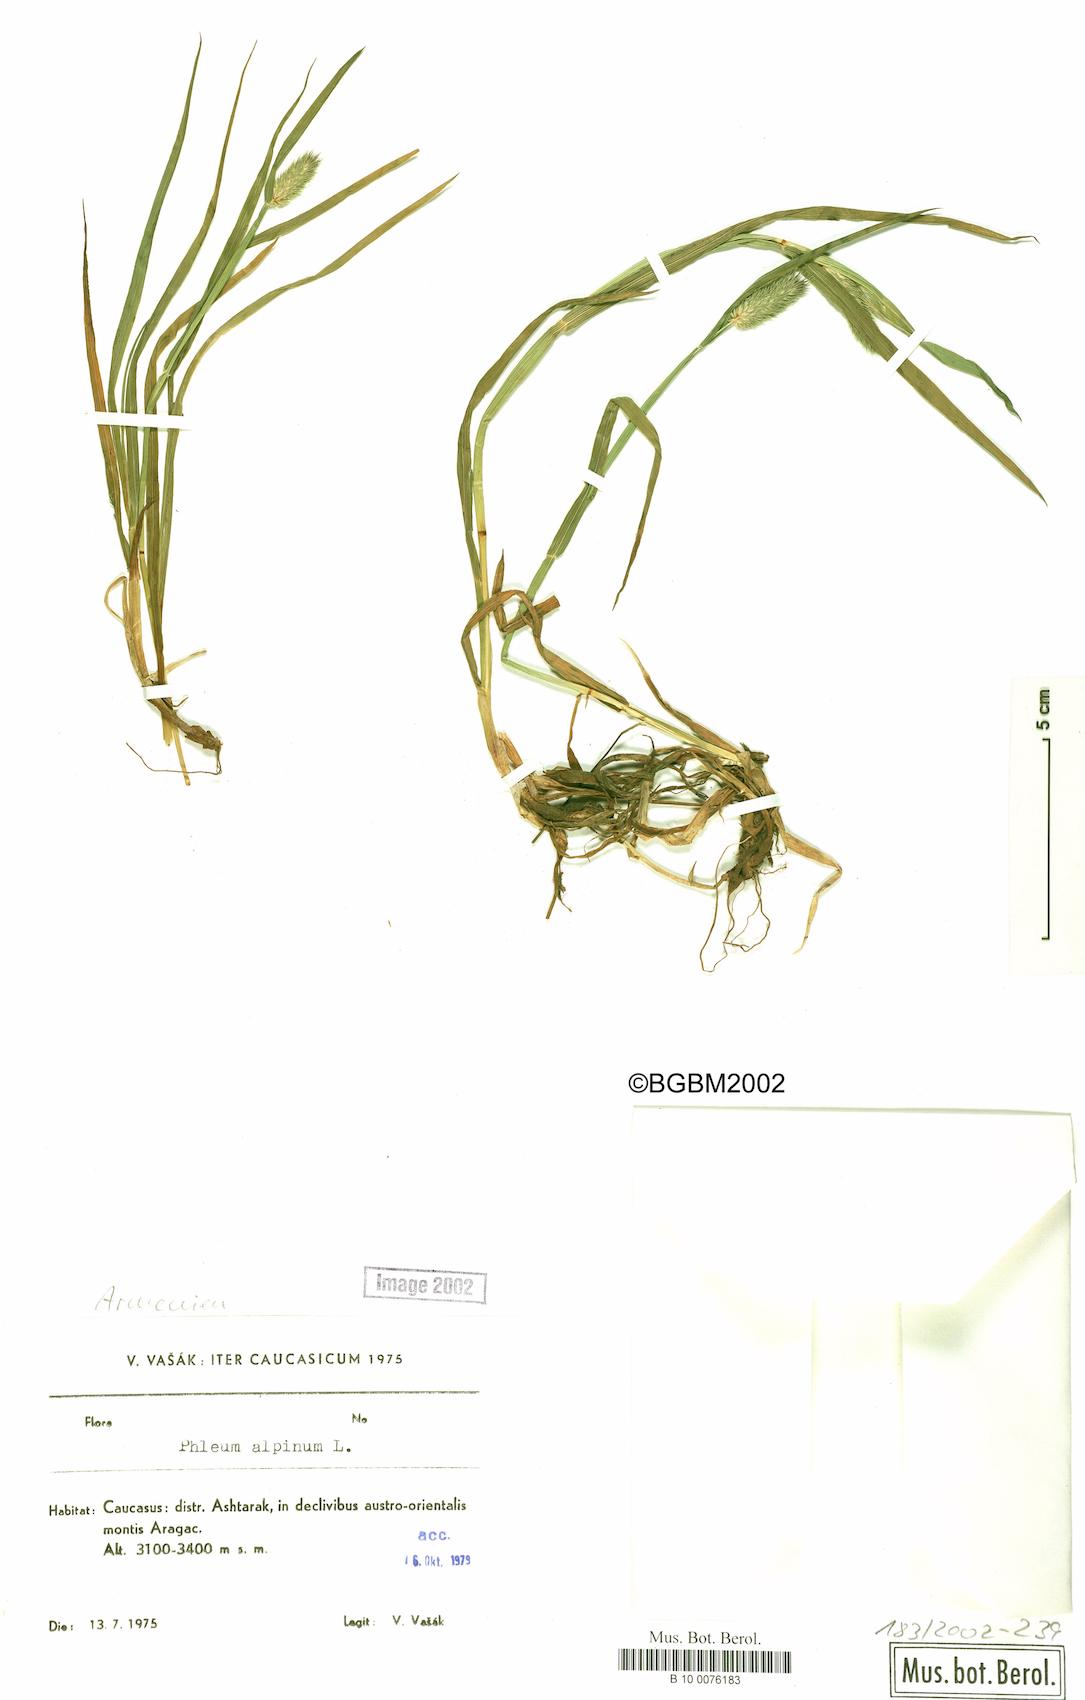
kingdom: Plantae
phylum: Tracheophyta
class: Liliopsida
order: Poales
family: Poaceae
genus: Phleum
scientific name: Phleum alpinum
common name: Alpine cat's-tail
